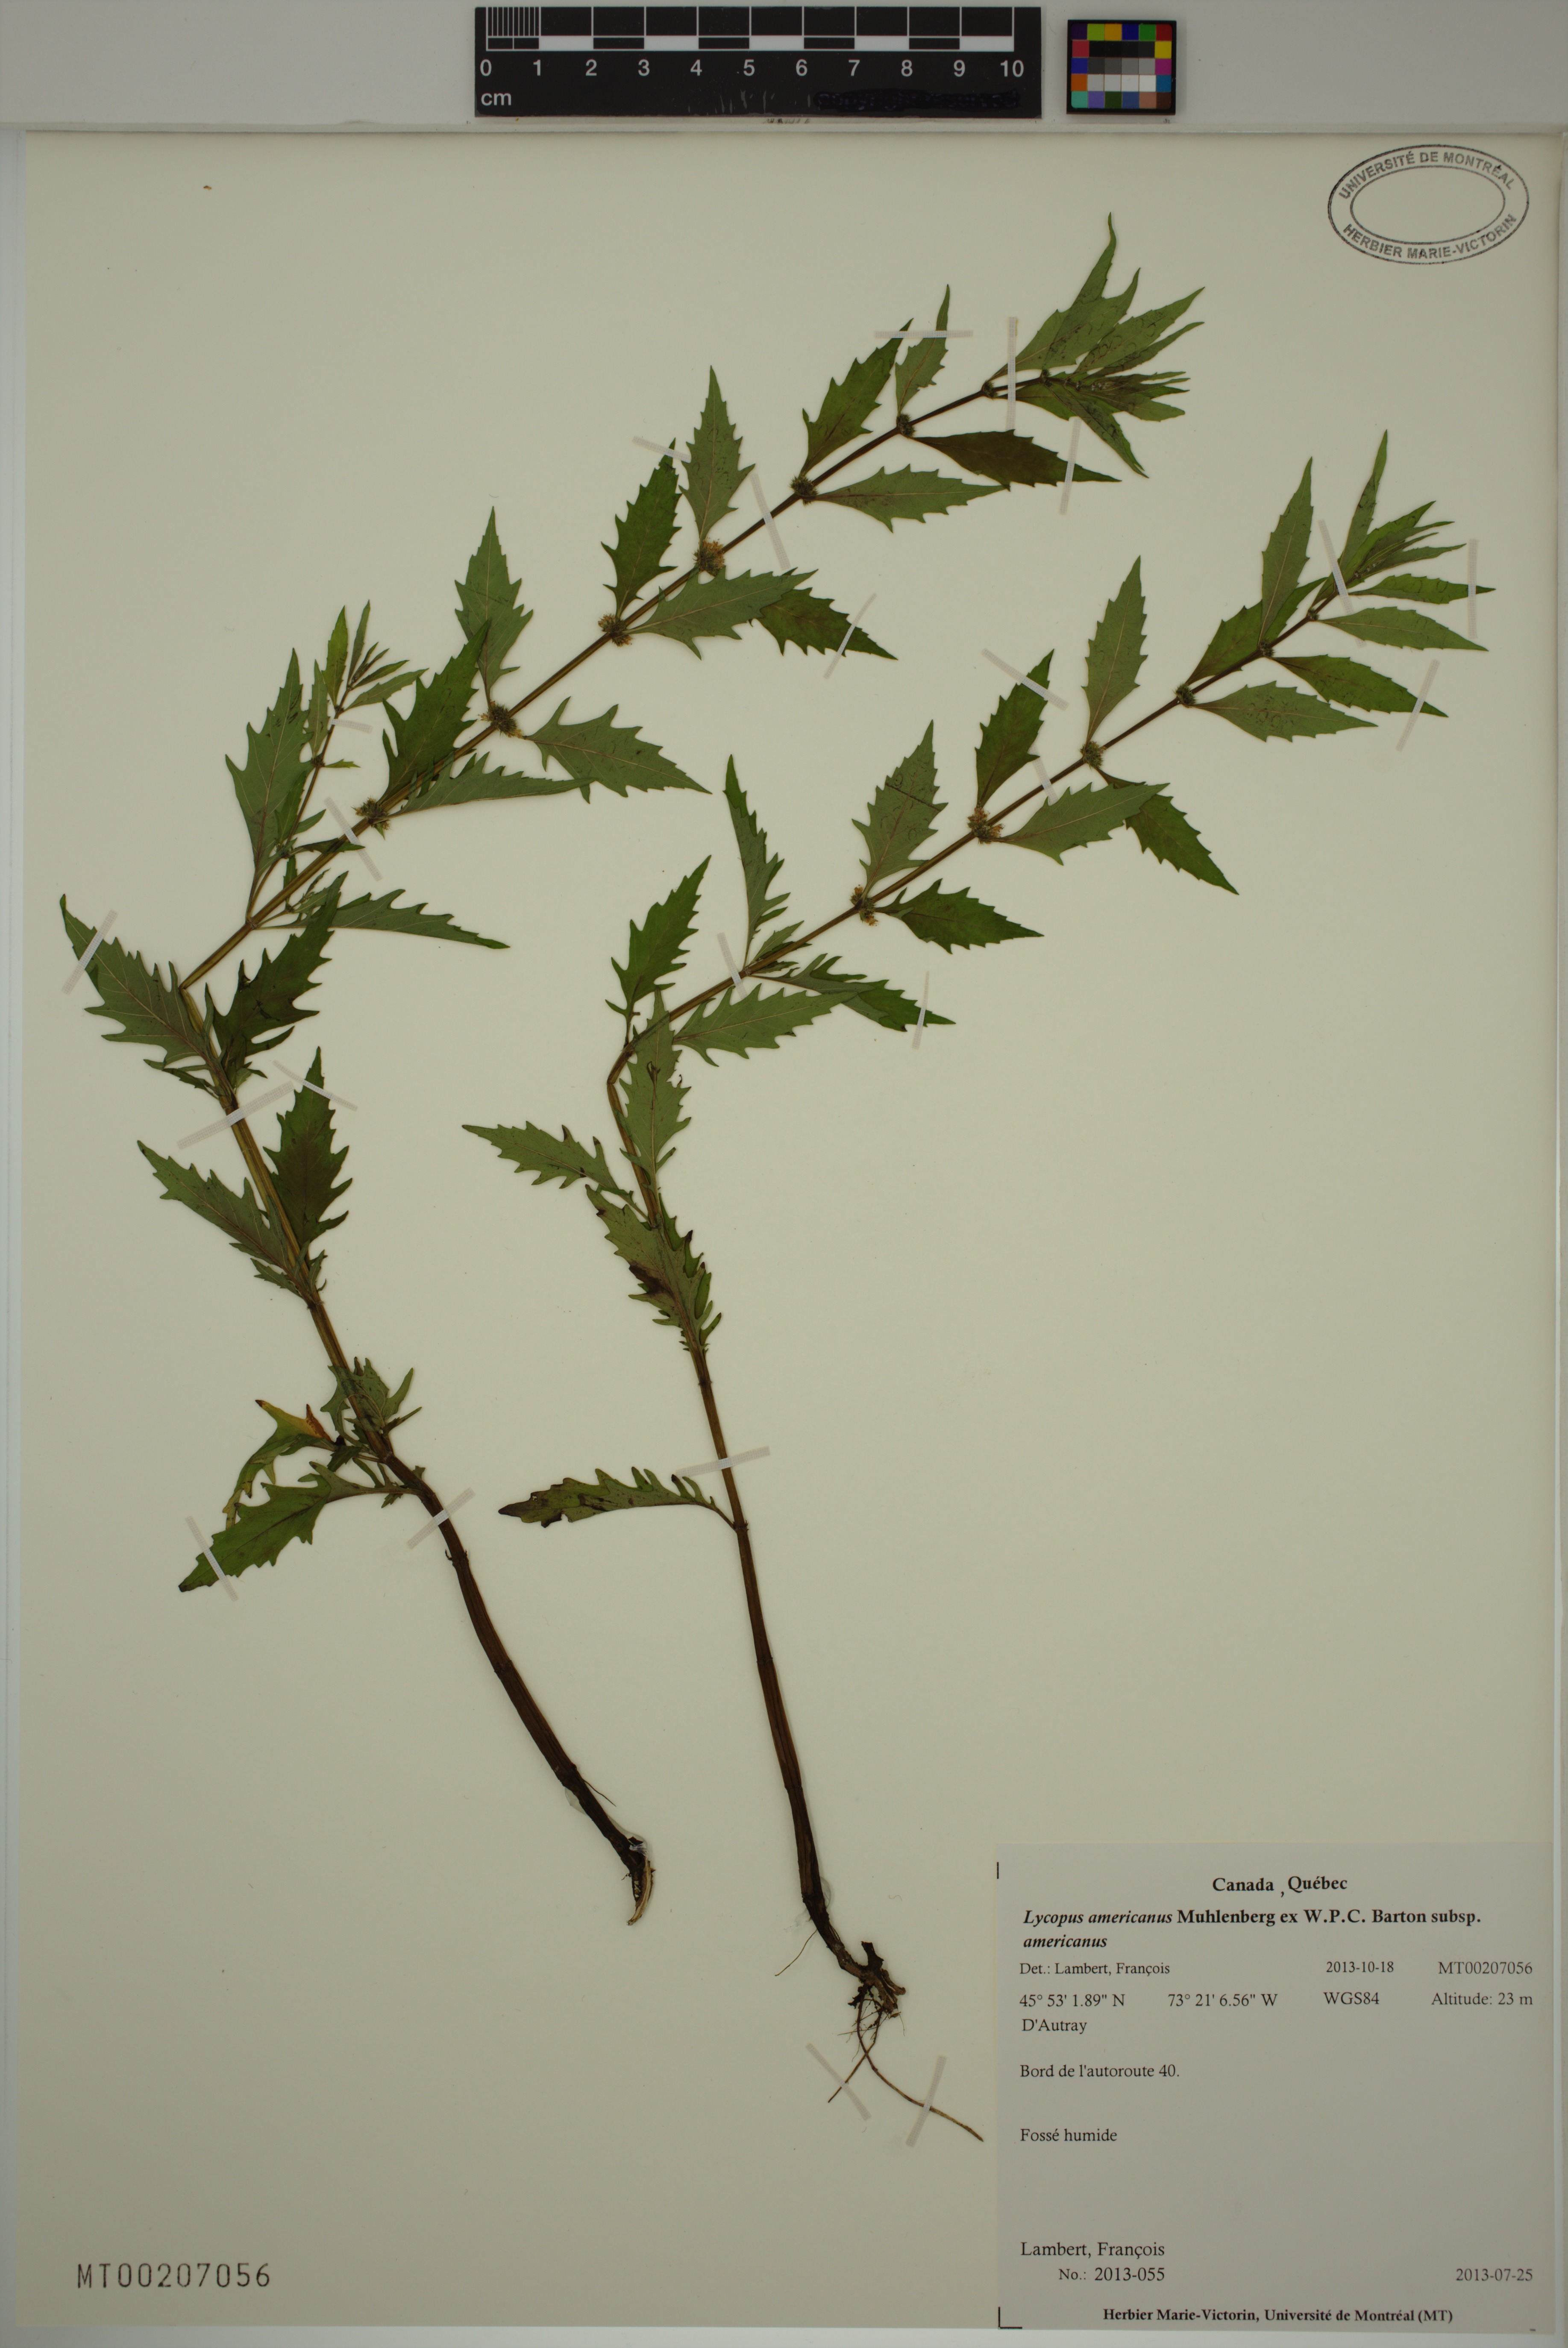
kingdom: Plantae
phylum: Tracheophyta
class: Magnoliopsida
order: Lamiales
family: Lamiaceae
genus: Lycopus
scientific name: Lycopus americanus
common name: American bugleweed
